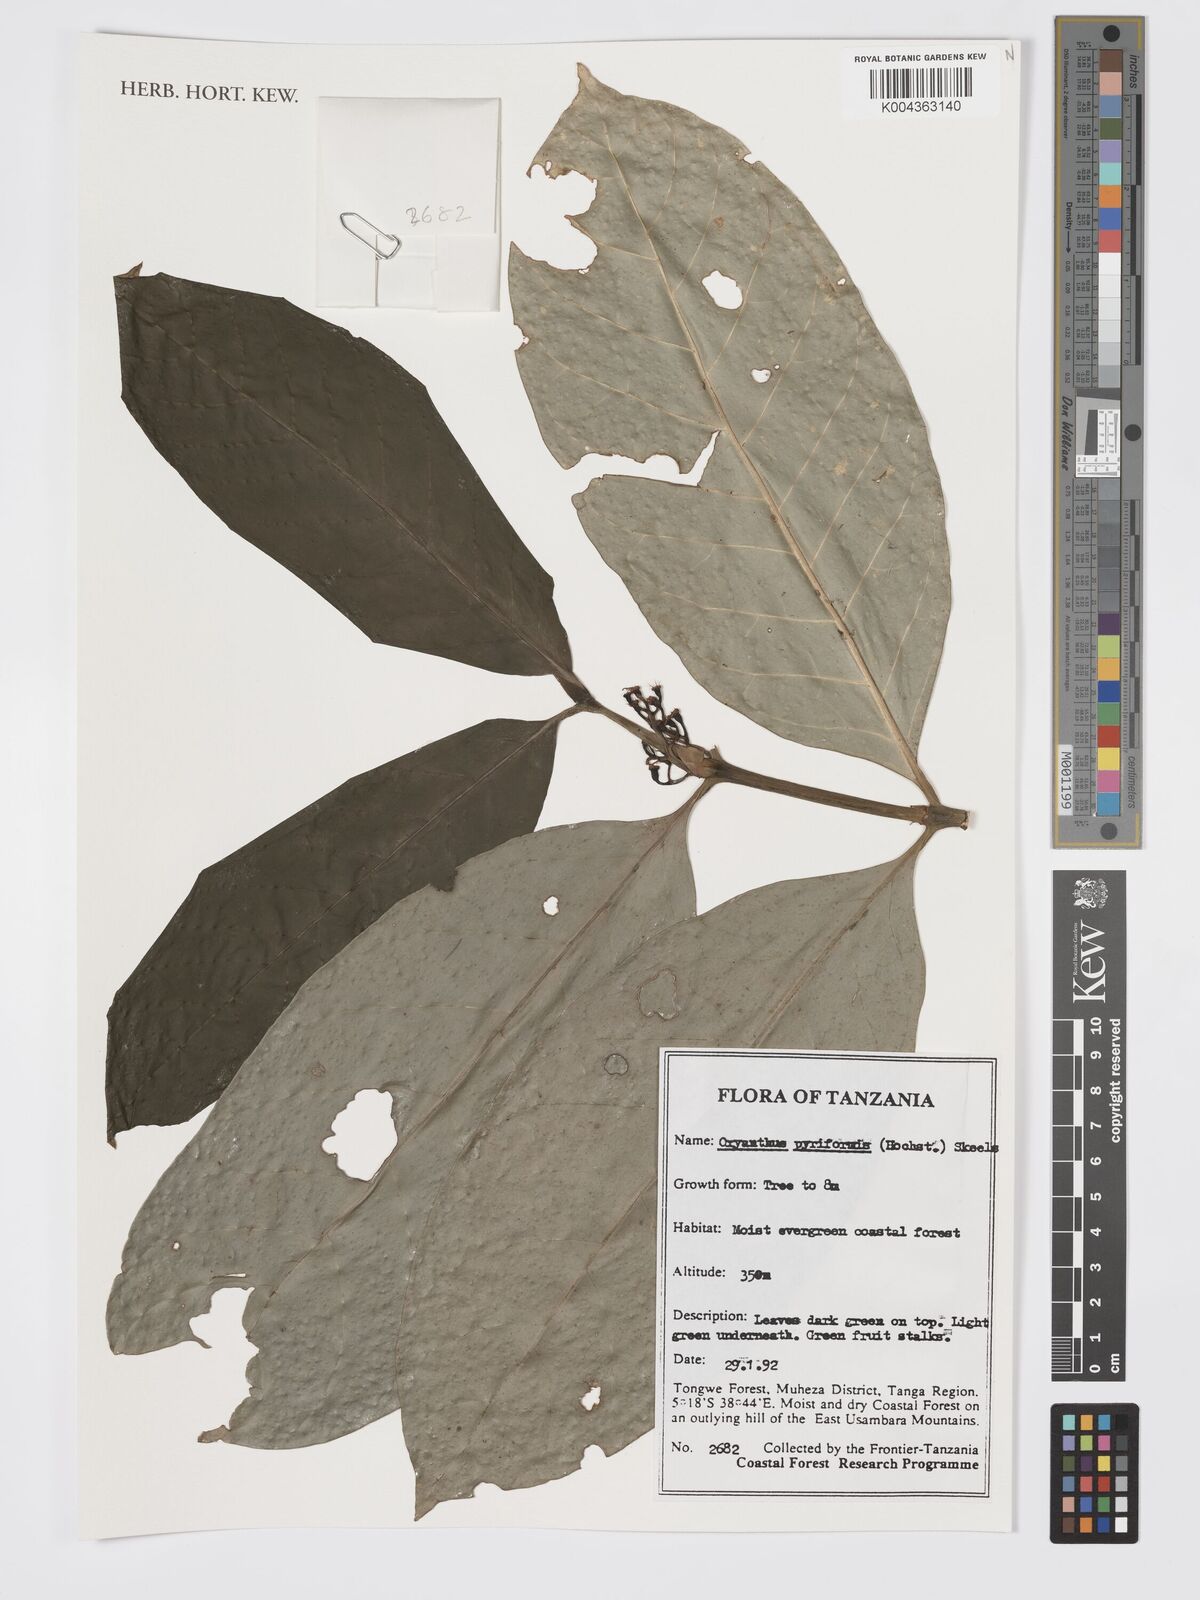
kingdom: Plantae
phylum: Tracheophyta
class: Magnoliopsida
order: Gentianales
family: Rubiaceae
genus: Oxyanthus
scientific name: Oxyanthus pyriformis
